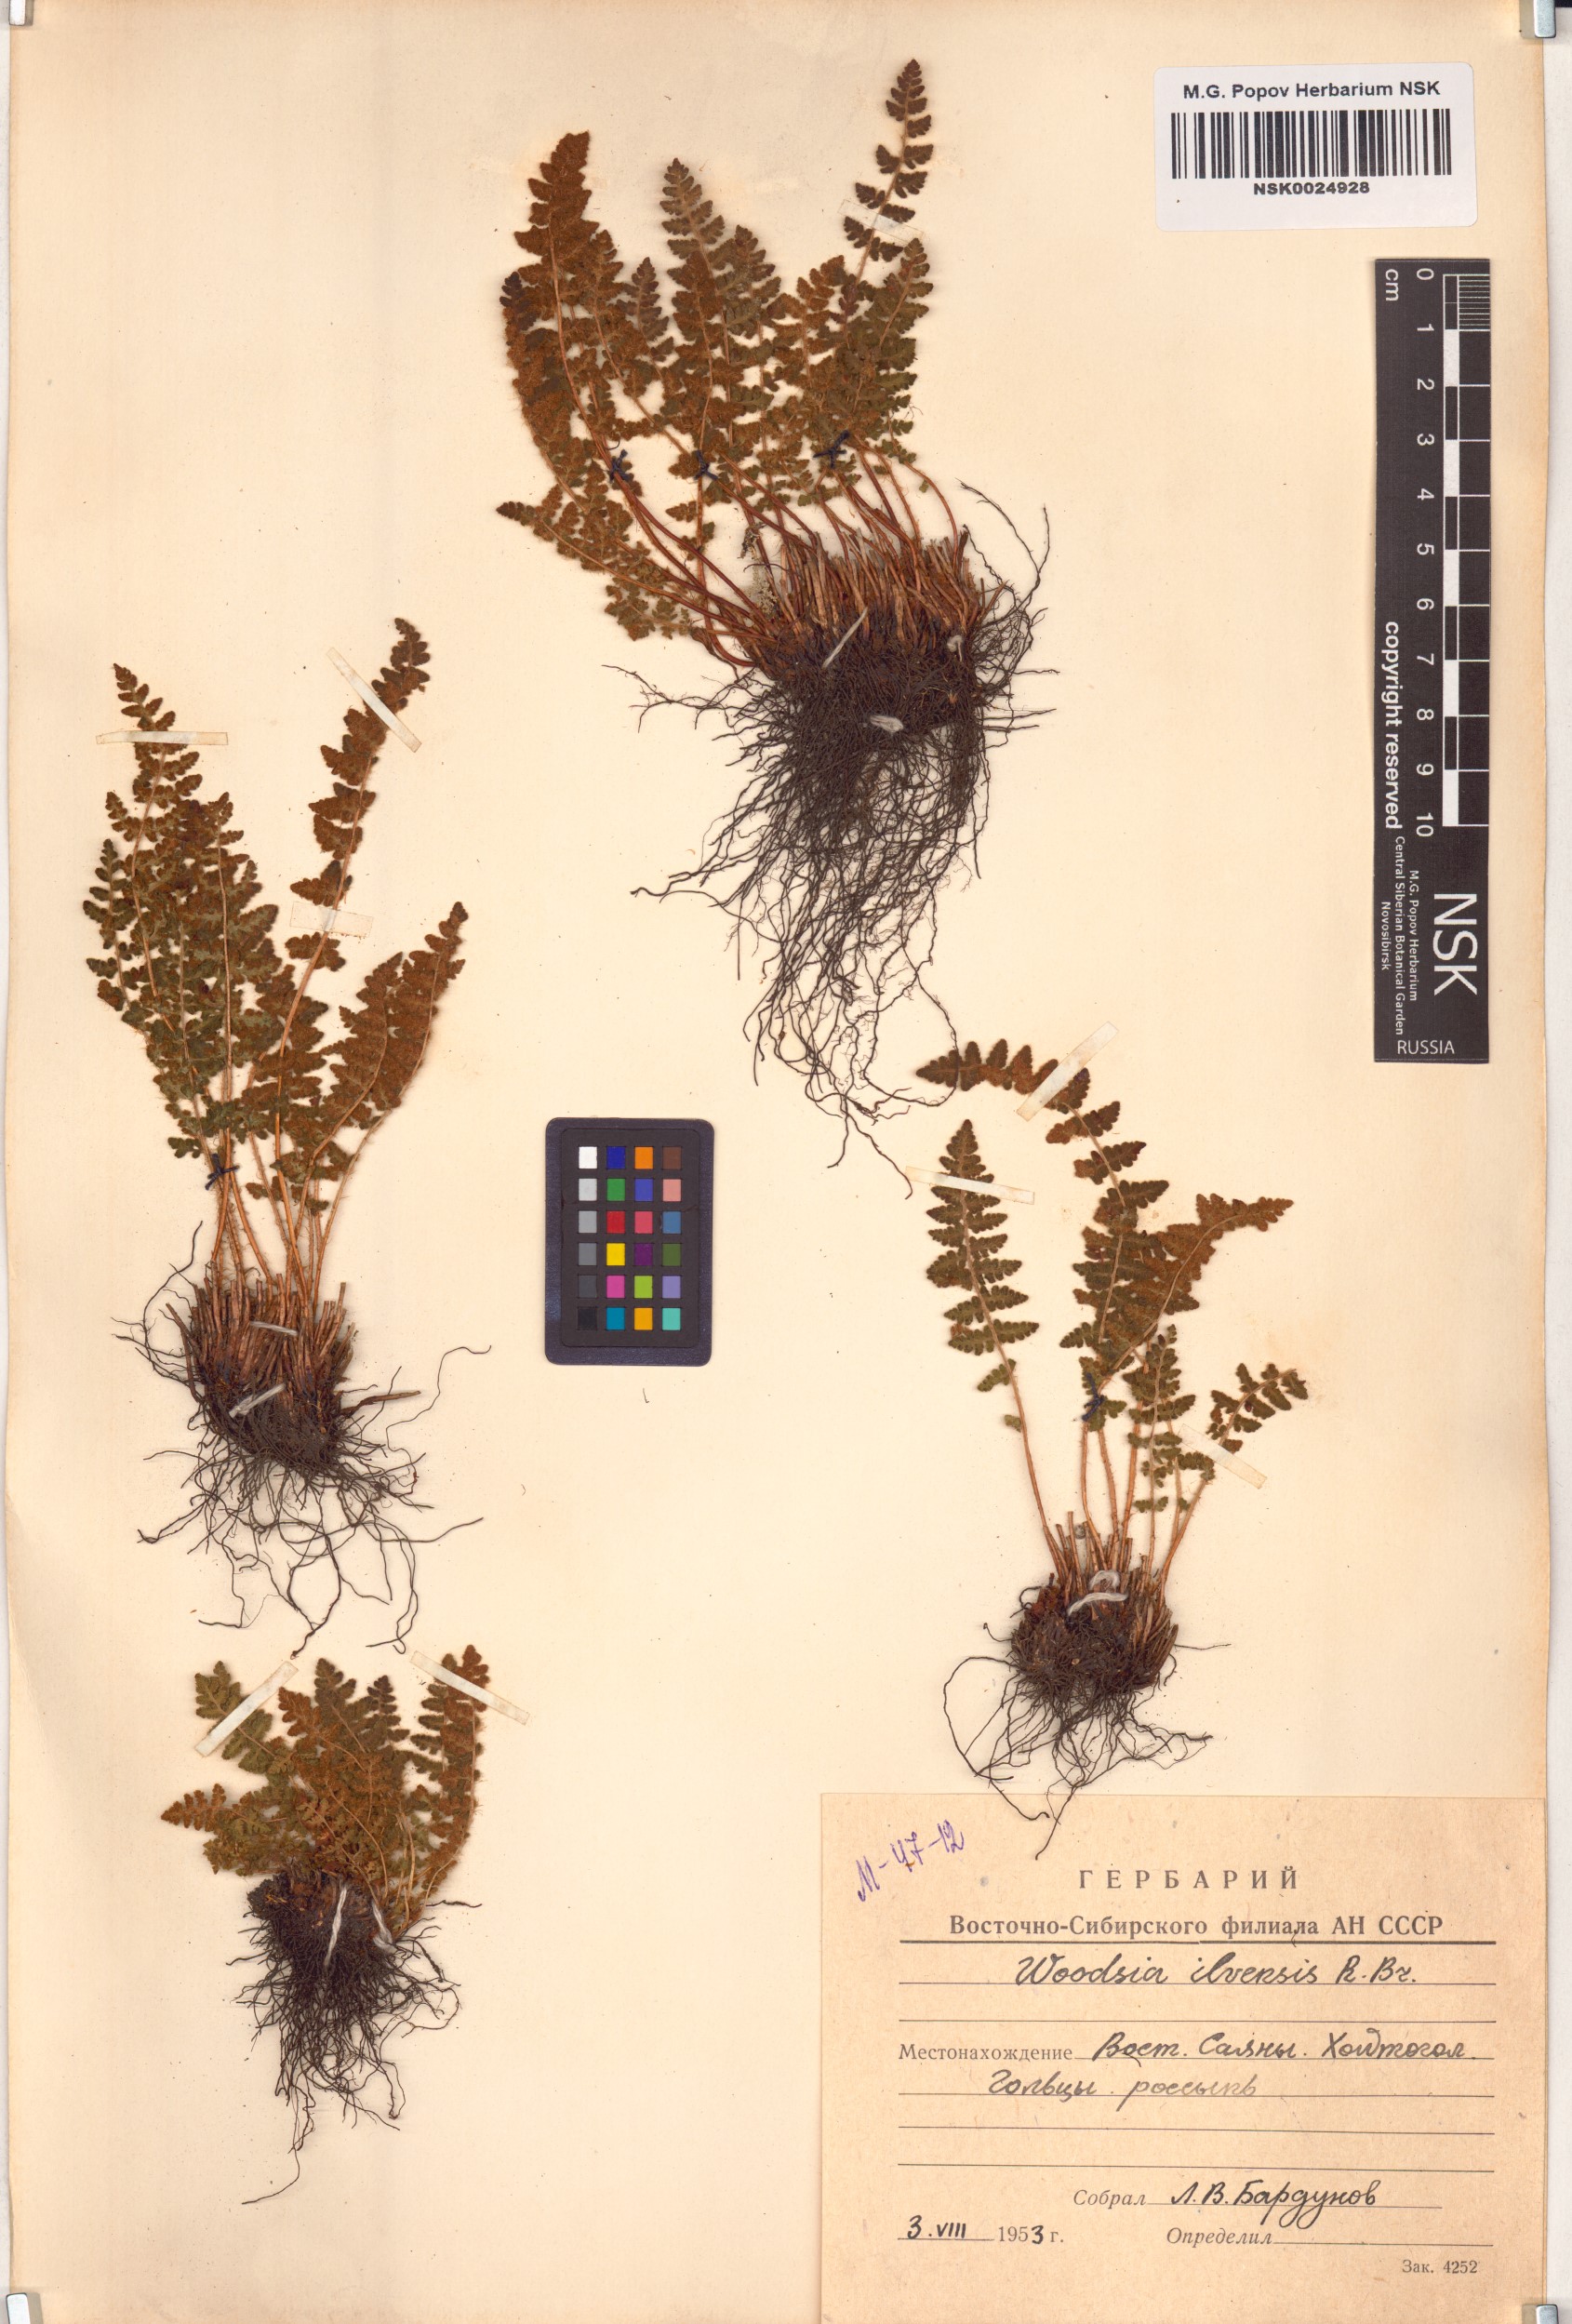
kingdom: Plantae
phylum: Tracheophyta
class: Polypodiopsida
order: Polypodiales
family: Woodsiaceae
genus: Woodsia
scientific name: Woodsia ilvensis
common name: Fragrant woodsia
